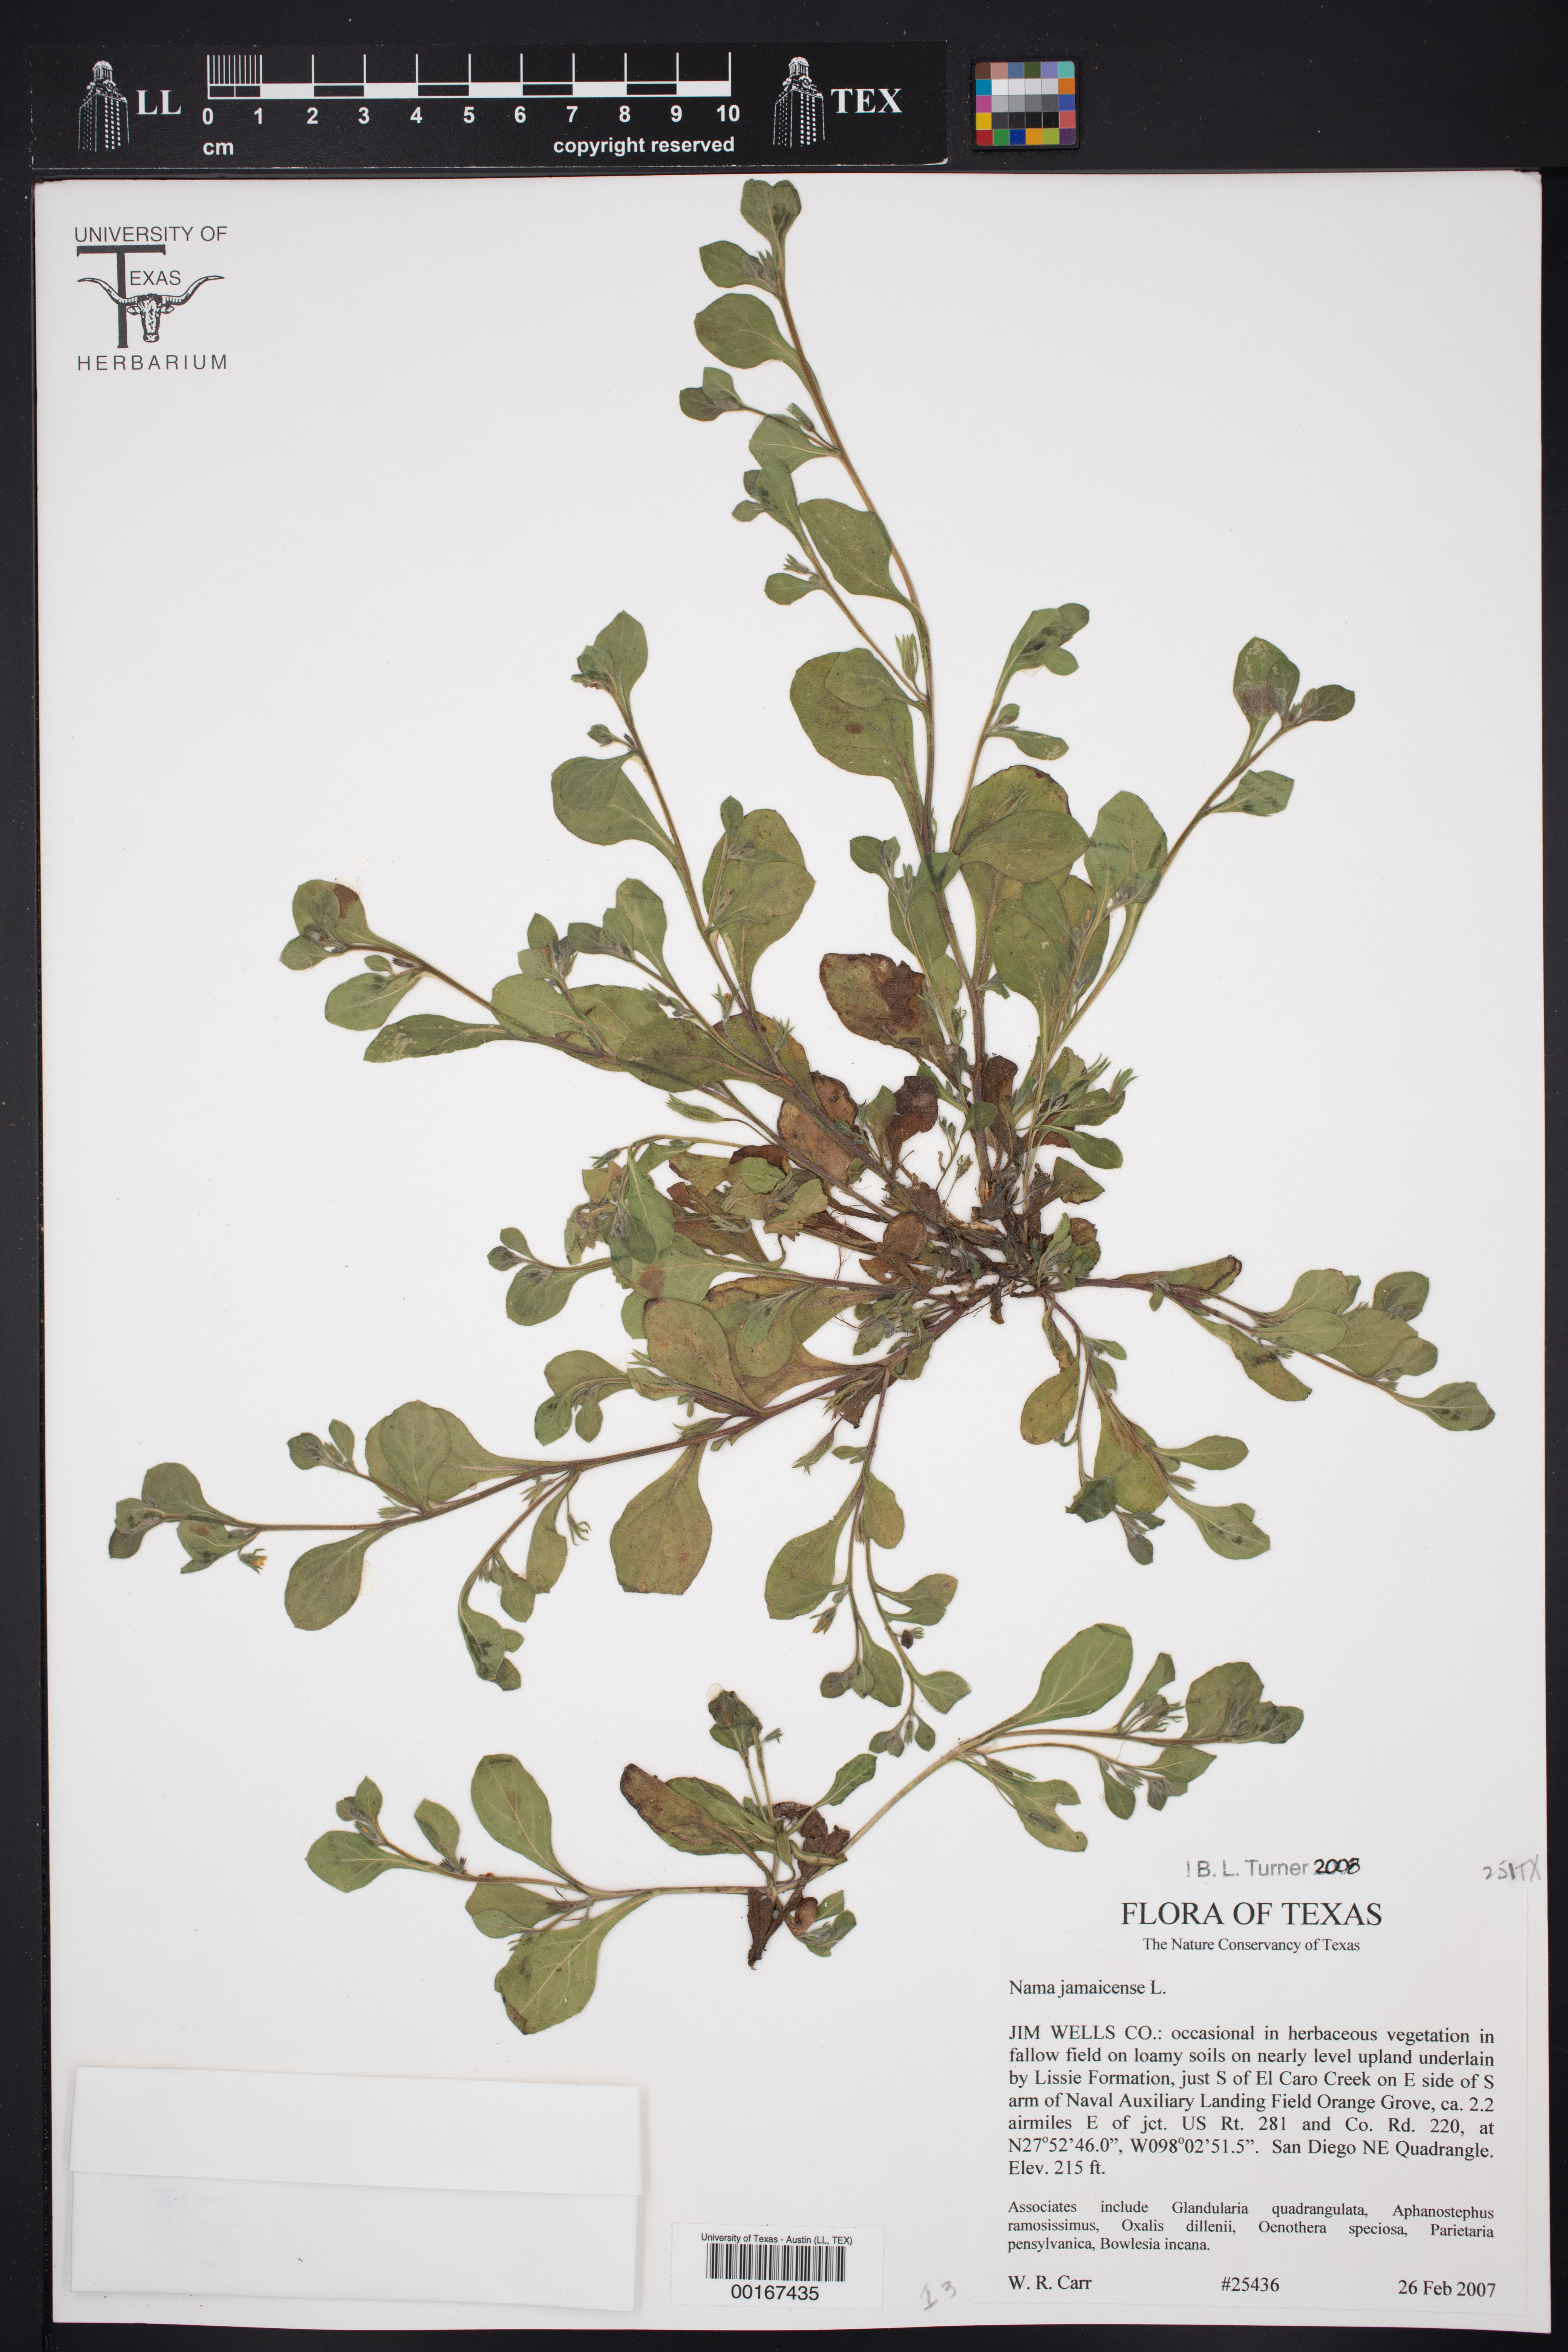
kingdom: Plantae
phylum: Tracheophyta
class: Magnoliopsida
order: Boraginales
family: Namaceae
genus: Nama
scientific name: Nama jamaicensis
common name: Jamaicanweed
